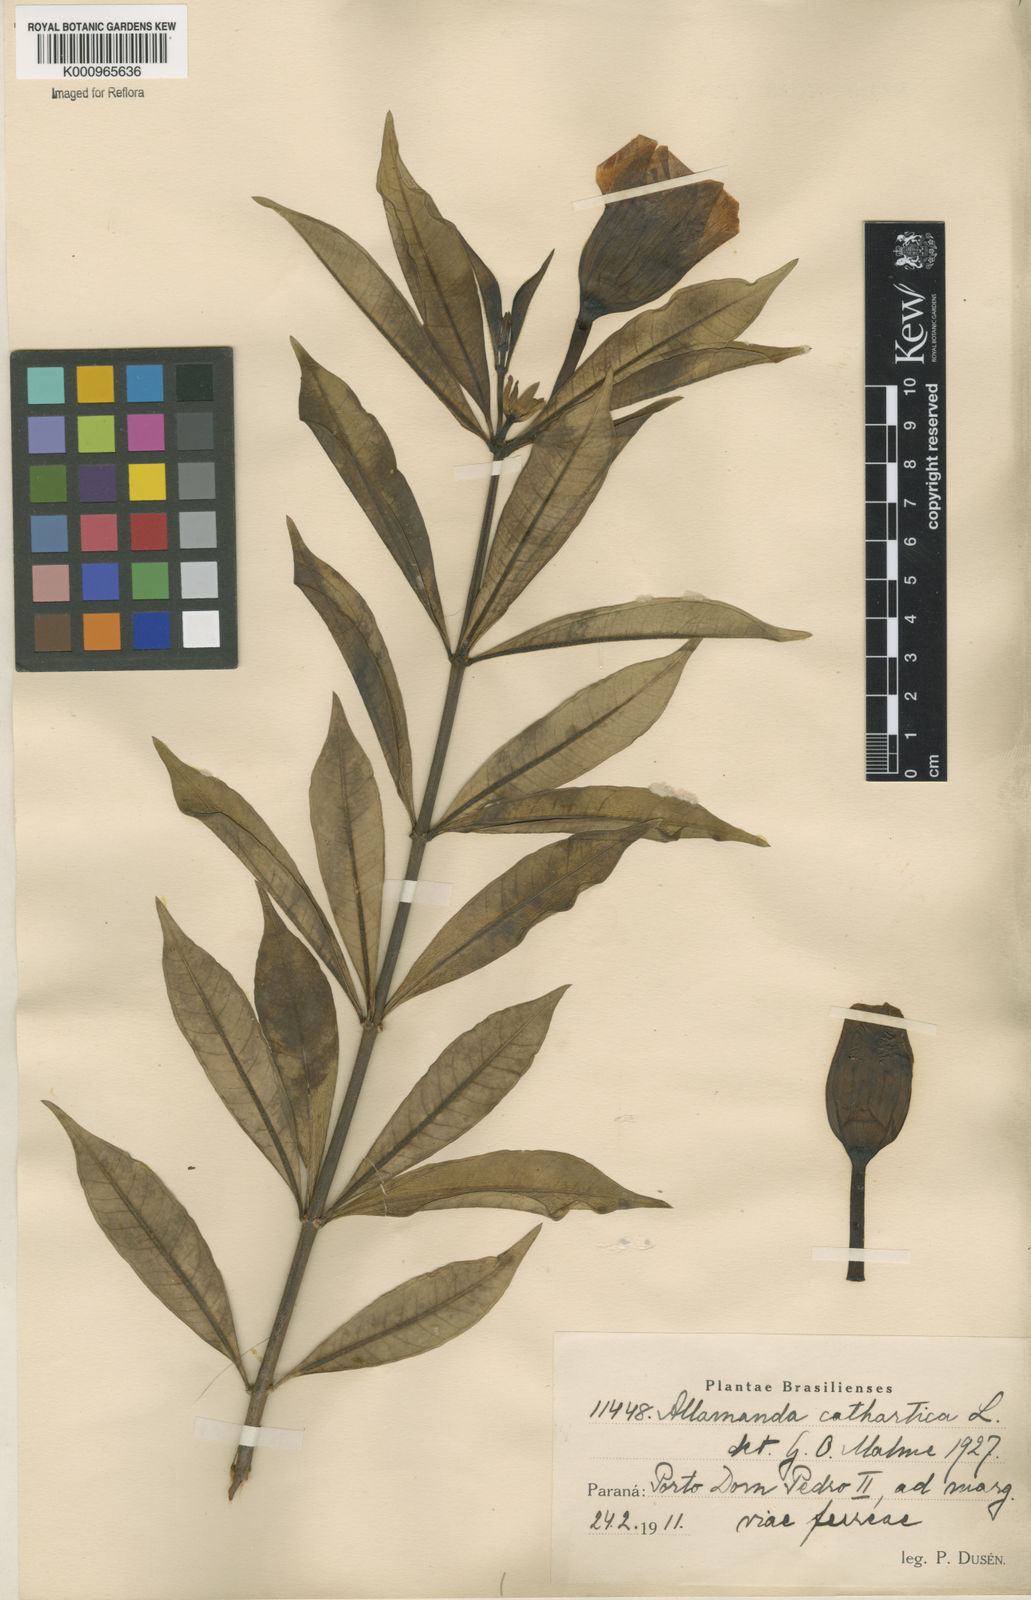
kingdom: Plantae
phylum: Tracheophyta
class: Magnoliopsida
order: Gentianales
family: Apocynaceae
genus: Allamanda
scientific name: Allamanda cathartica
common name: Golden trumpet
